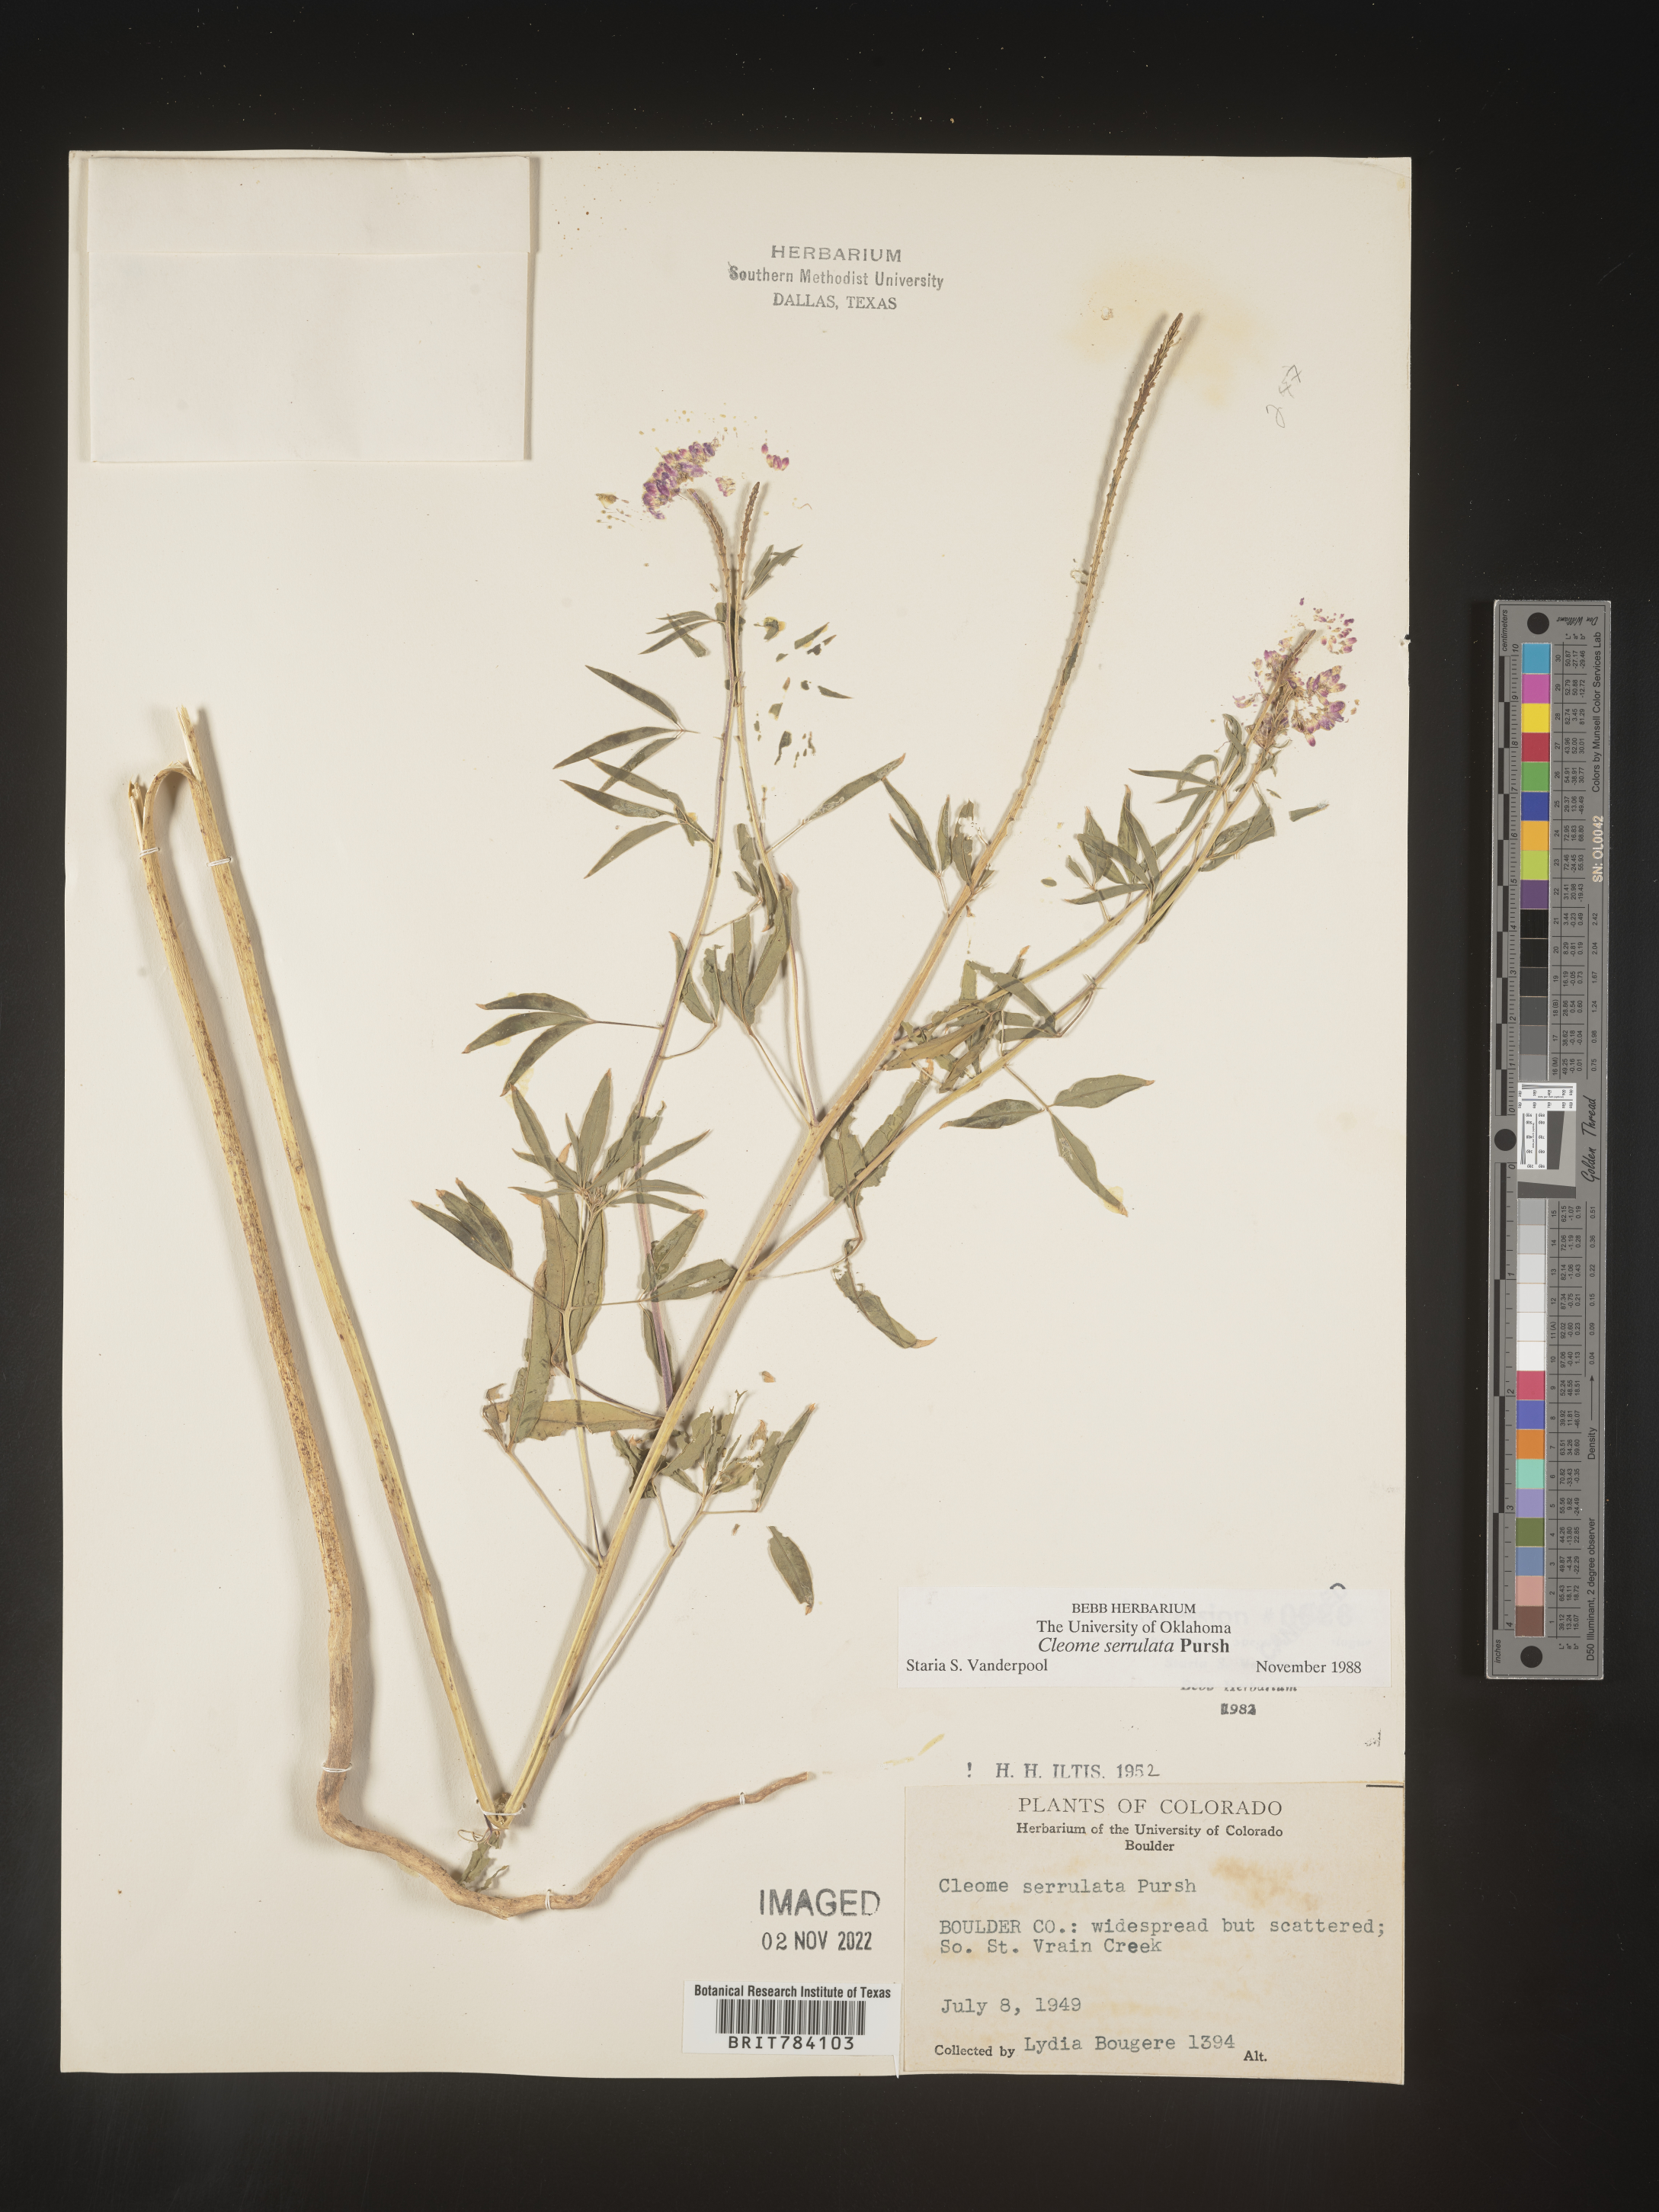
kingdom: Plantae
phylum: Tracheophyta
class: Magnoliopsida
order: Brassicales
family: Cleomaceae
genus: Cleomella
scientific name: Cleomella serrulata
